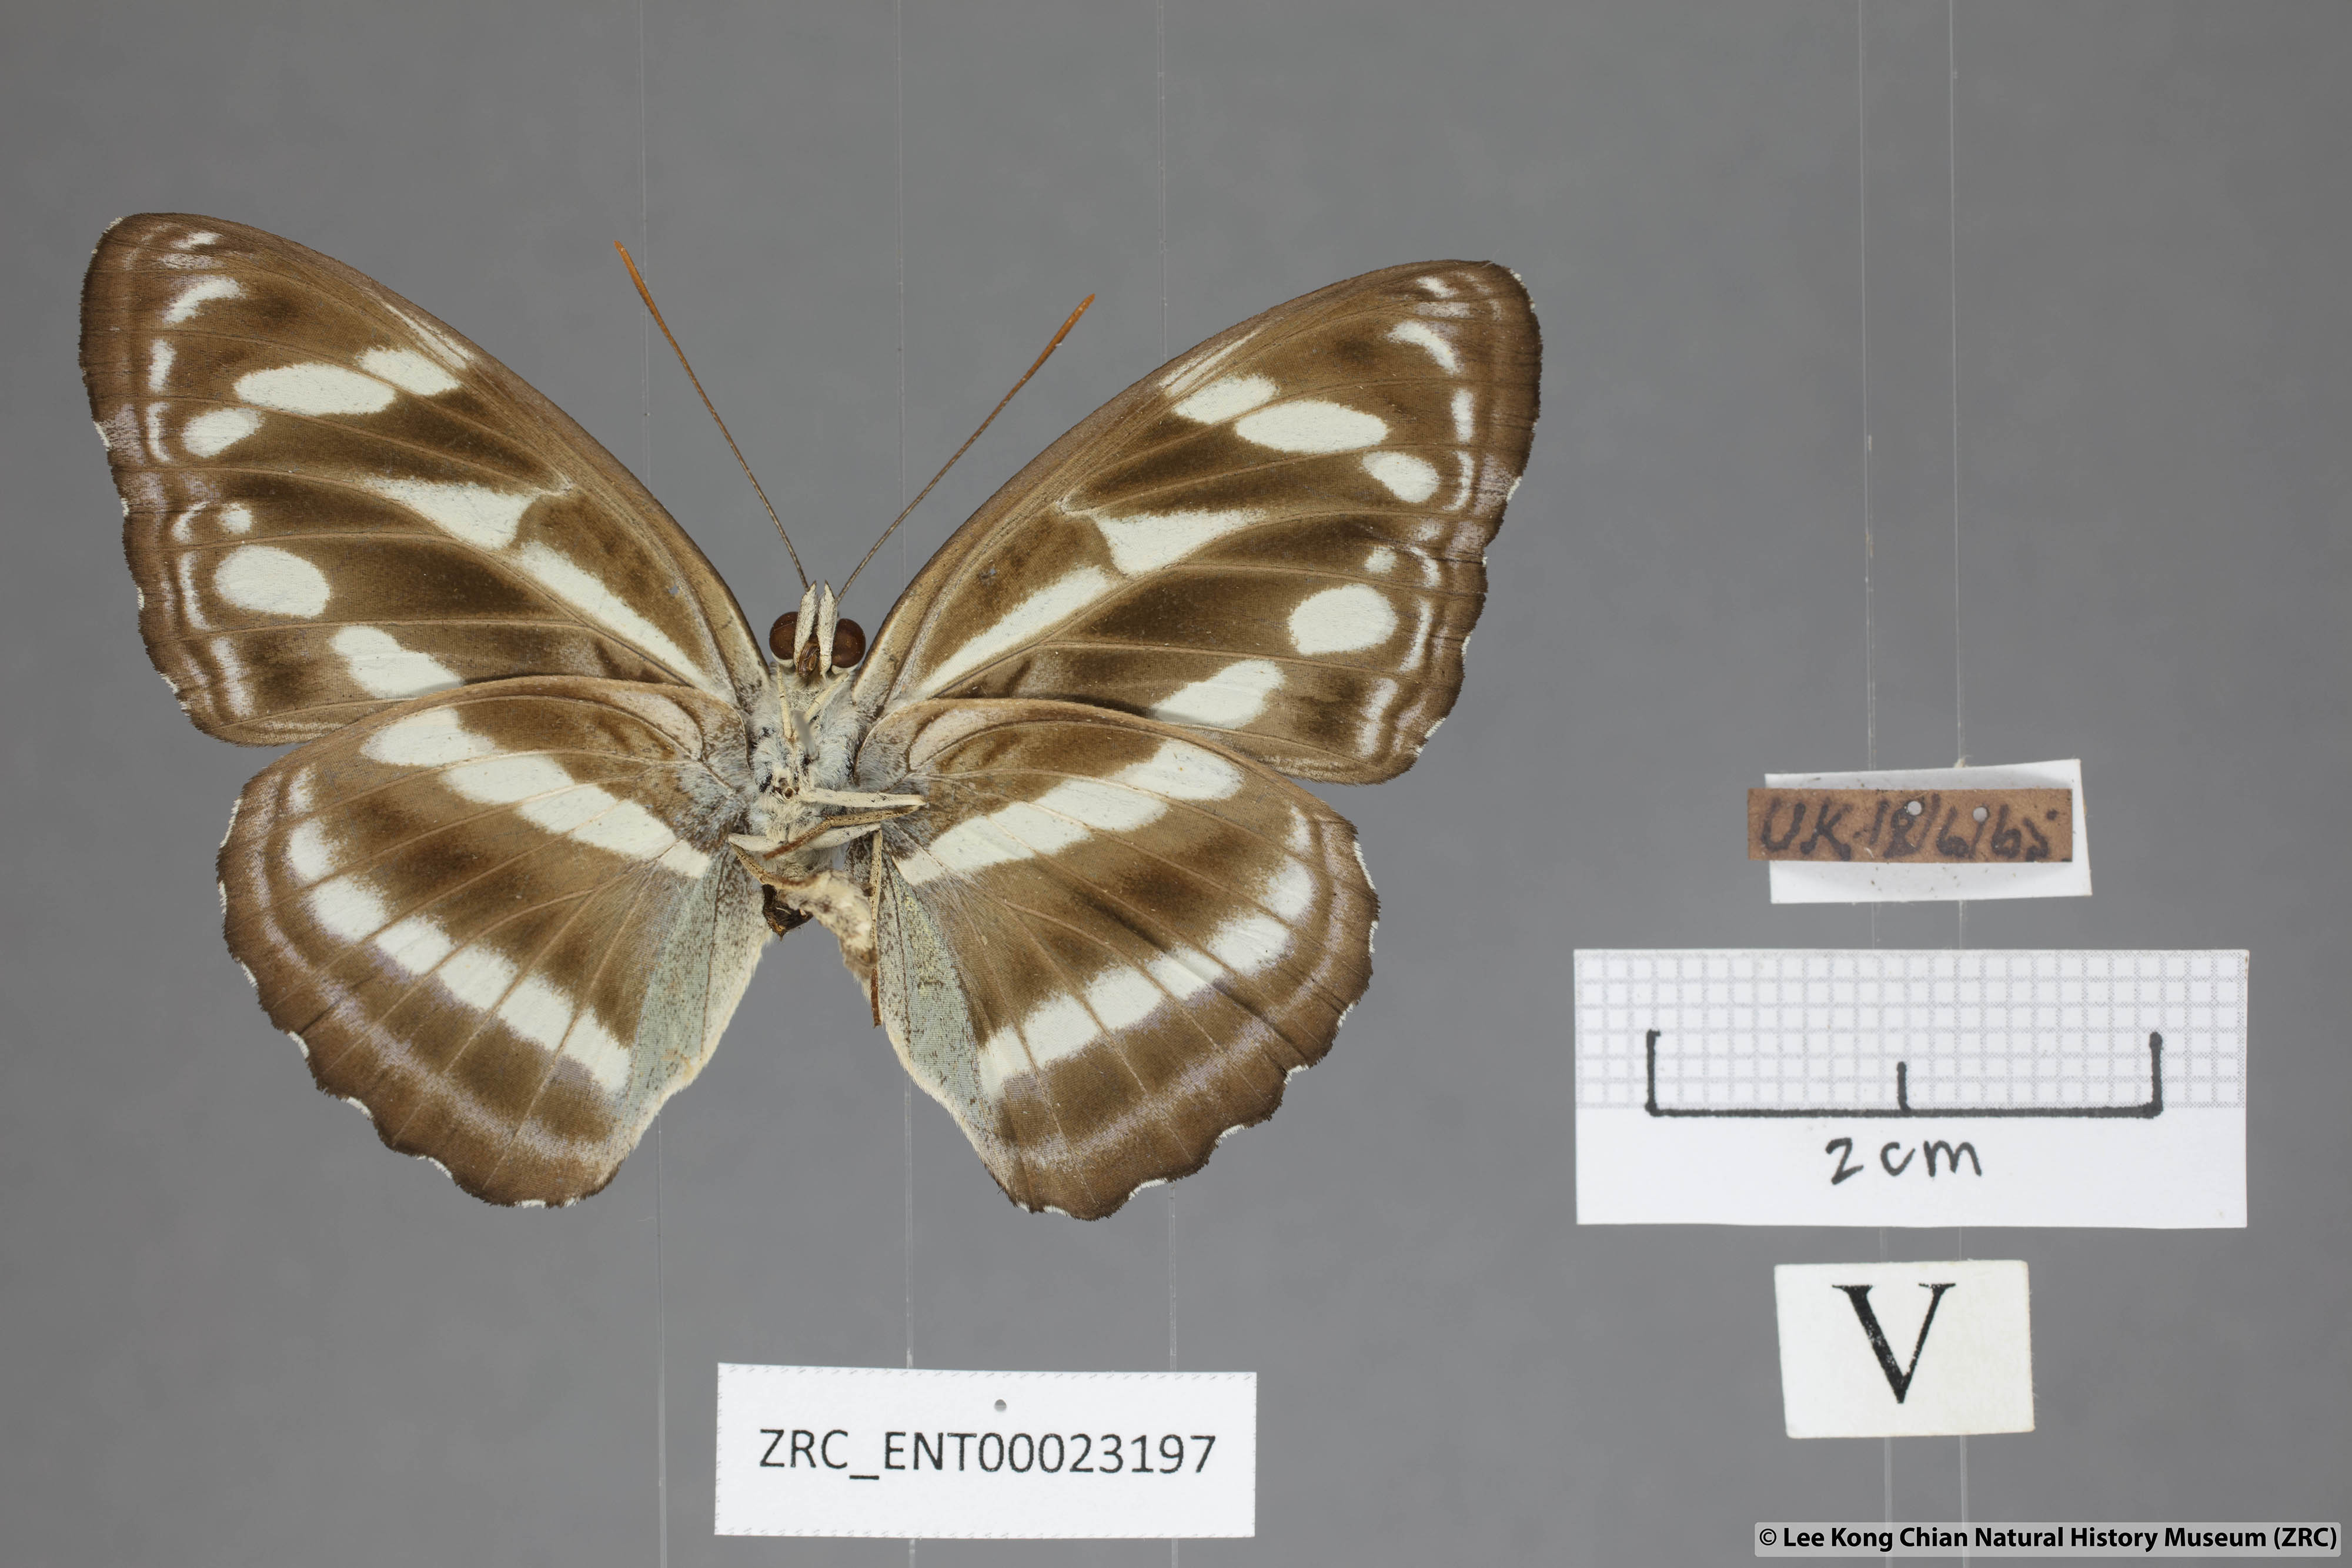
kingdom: Animalia
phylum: Arthropoda
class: Insecta
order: Lepidoptera
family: Nymphalidae
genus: Parathyma
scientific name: Parathyma kanwa
